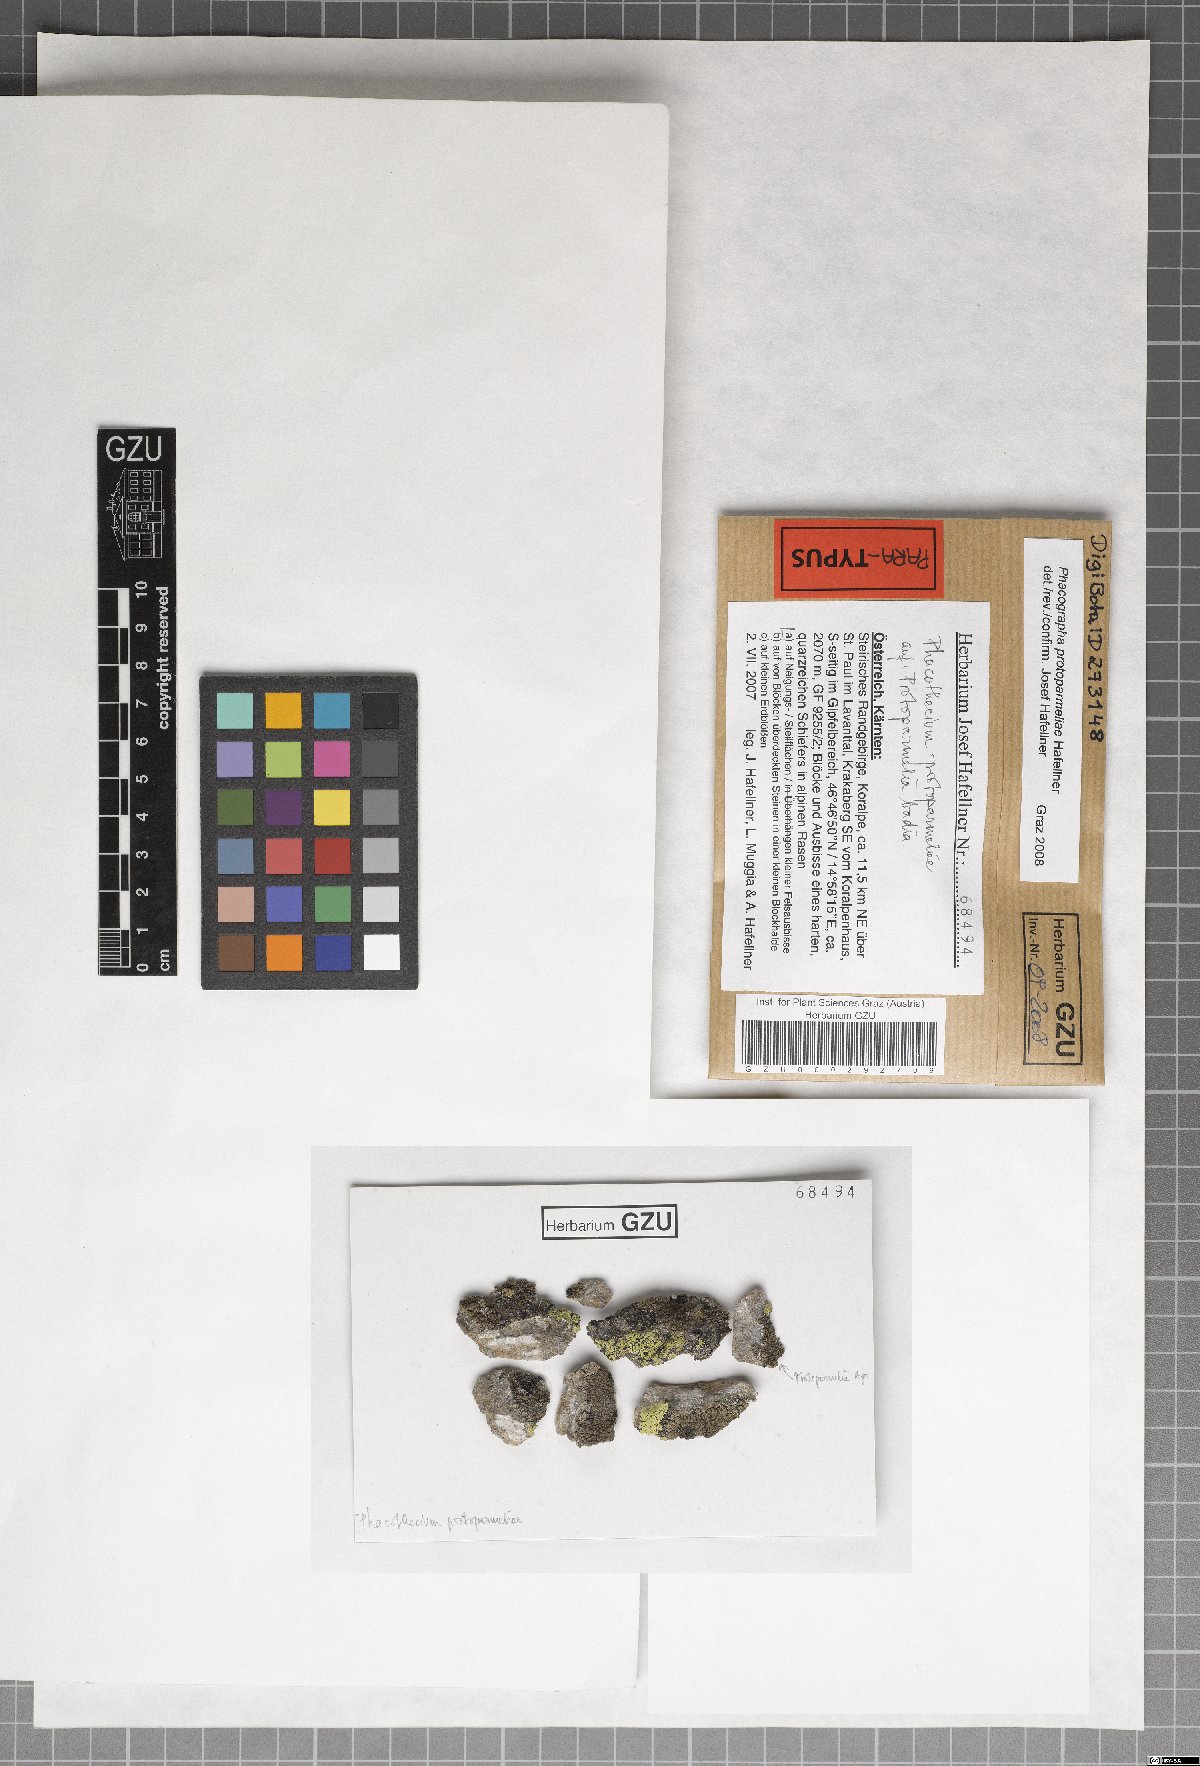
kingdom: Fungi
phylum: Ascomycota
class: Arthoniomycetes
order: Arthoniales
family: Roccellaceae
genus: Phacographa
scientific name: Phacographa protoparmeliae
